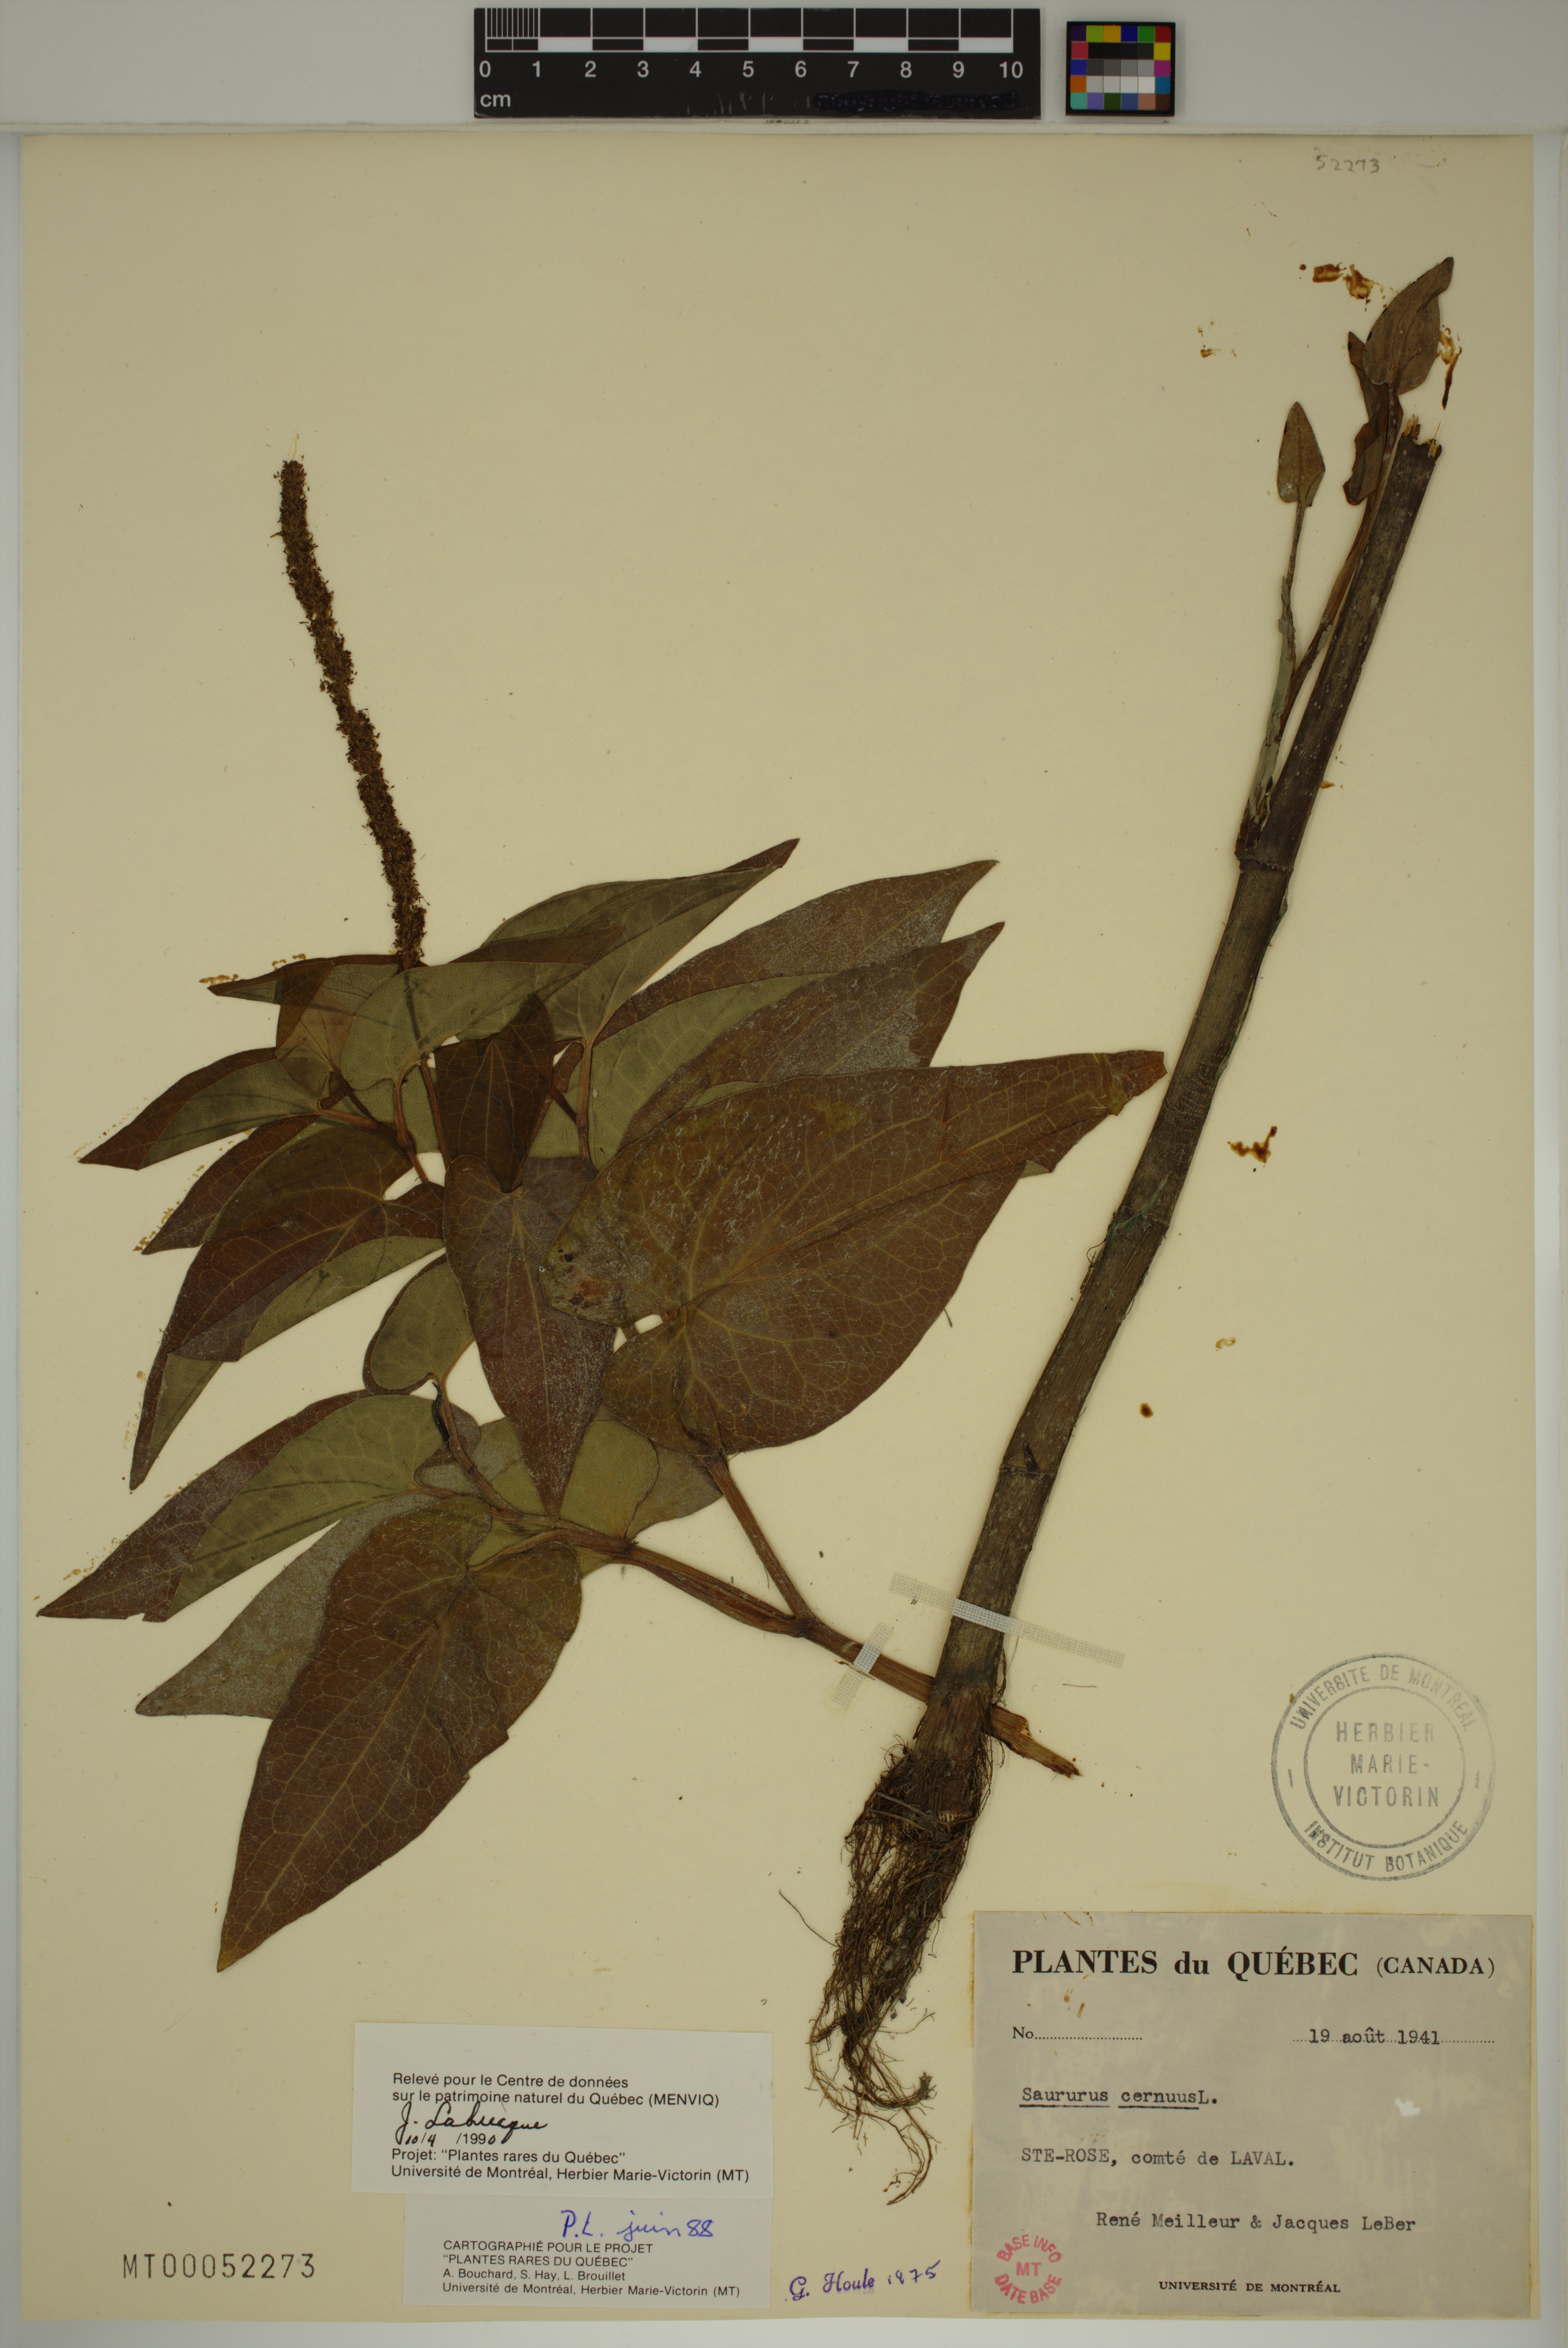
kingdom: Plantae
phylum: Tracheophyta
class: Magnoliopsida
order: Piperales
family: Saururaceae
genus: Saururus
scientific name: Saururus cernuus
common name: Lizard's-tail
